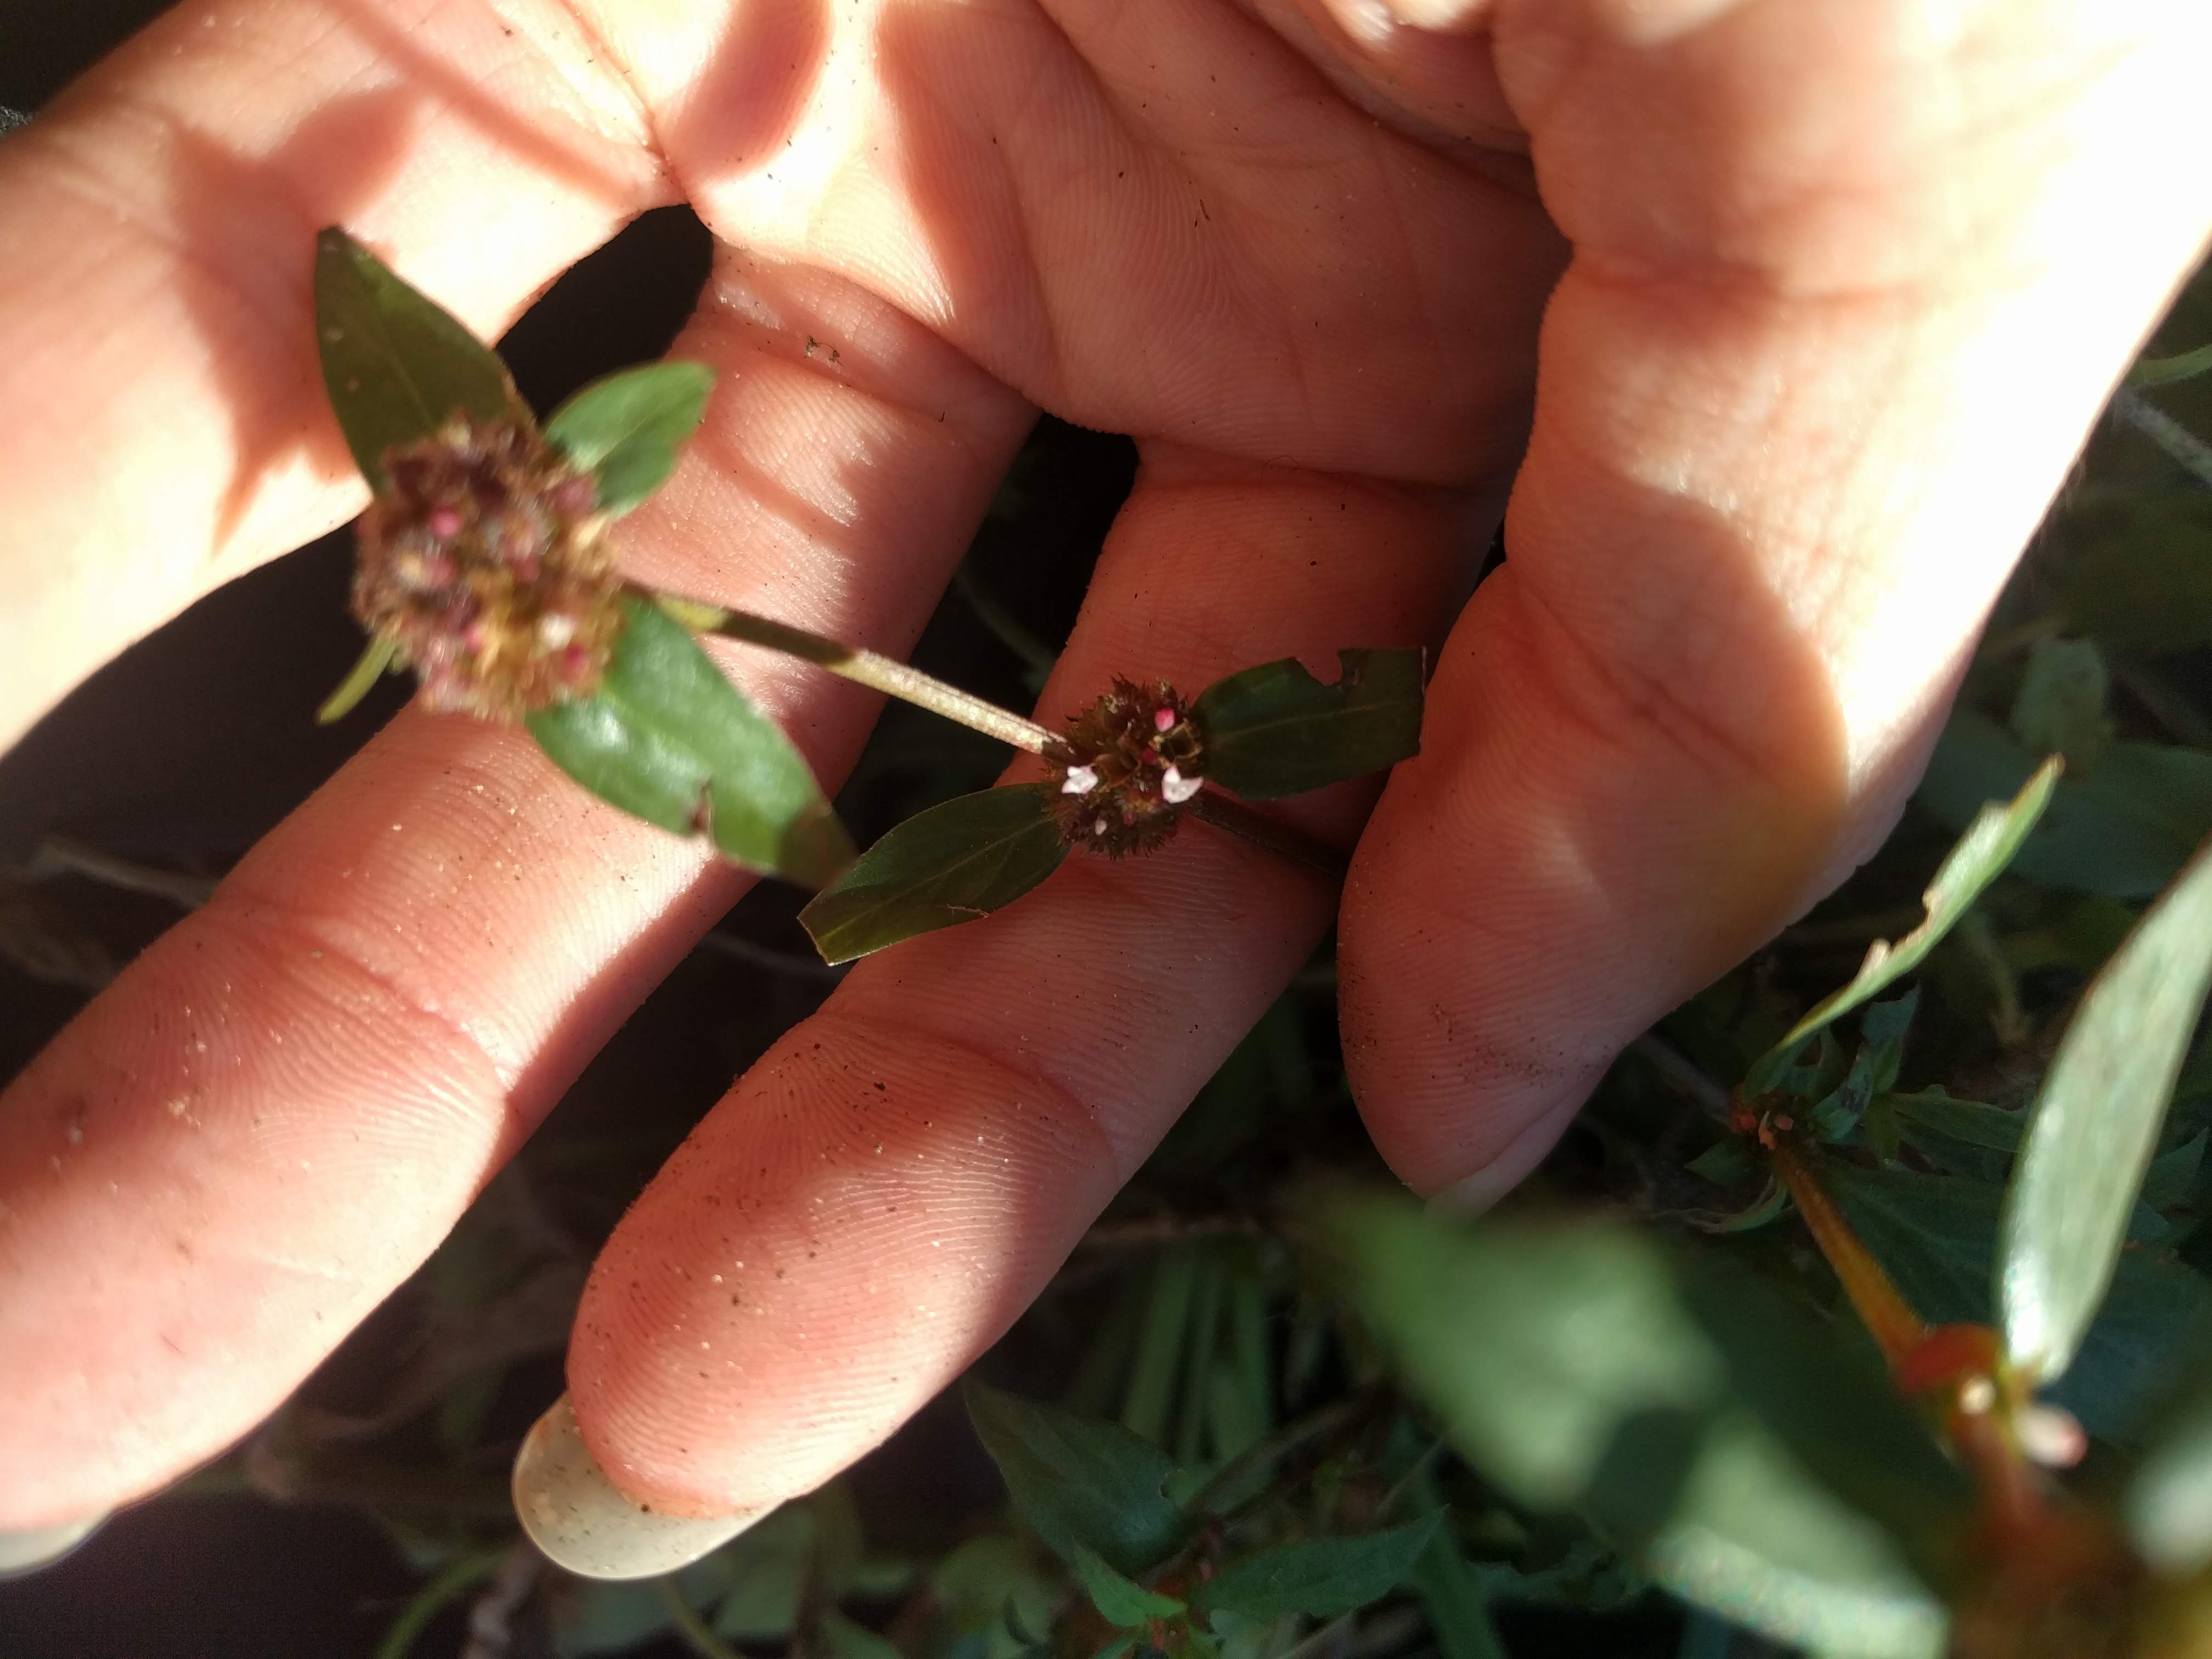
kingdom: Plantae
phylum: Tracheophyta
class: Magnoliopsida
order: Gentianales
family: Rubiaceae
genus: Spermacoce
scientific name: Spermacoce glabra
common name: Smooth buttonweed
